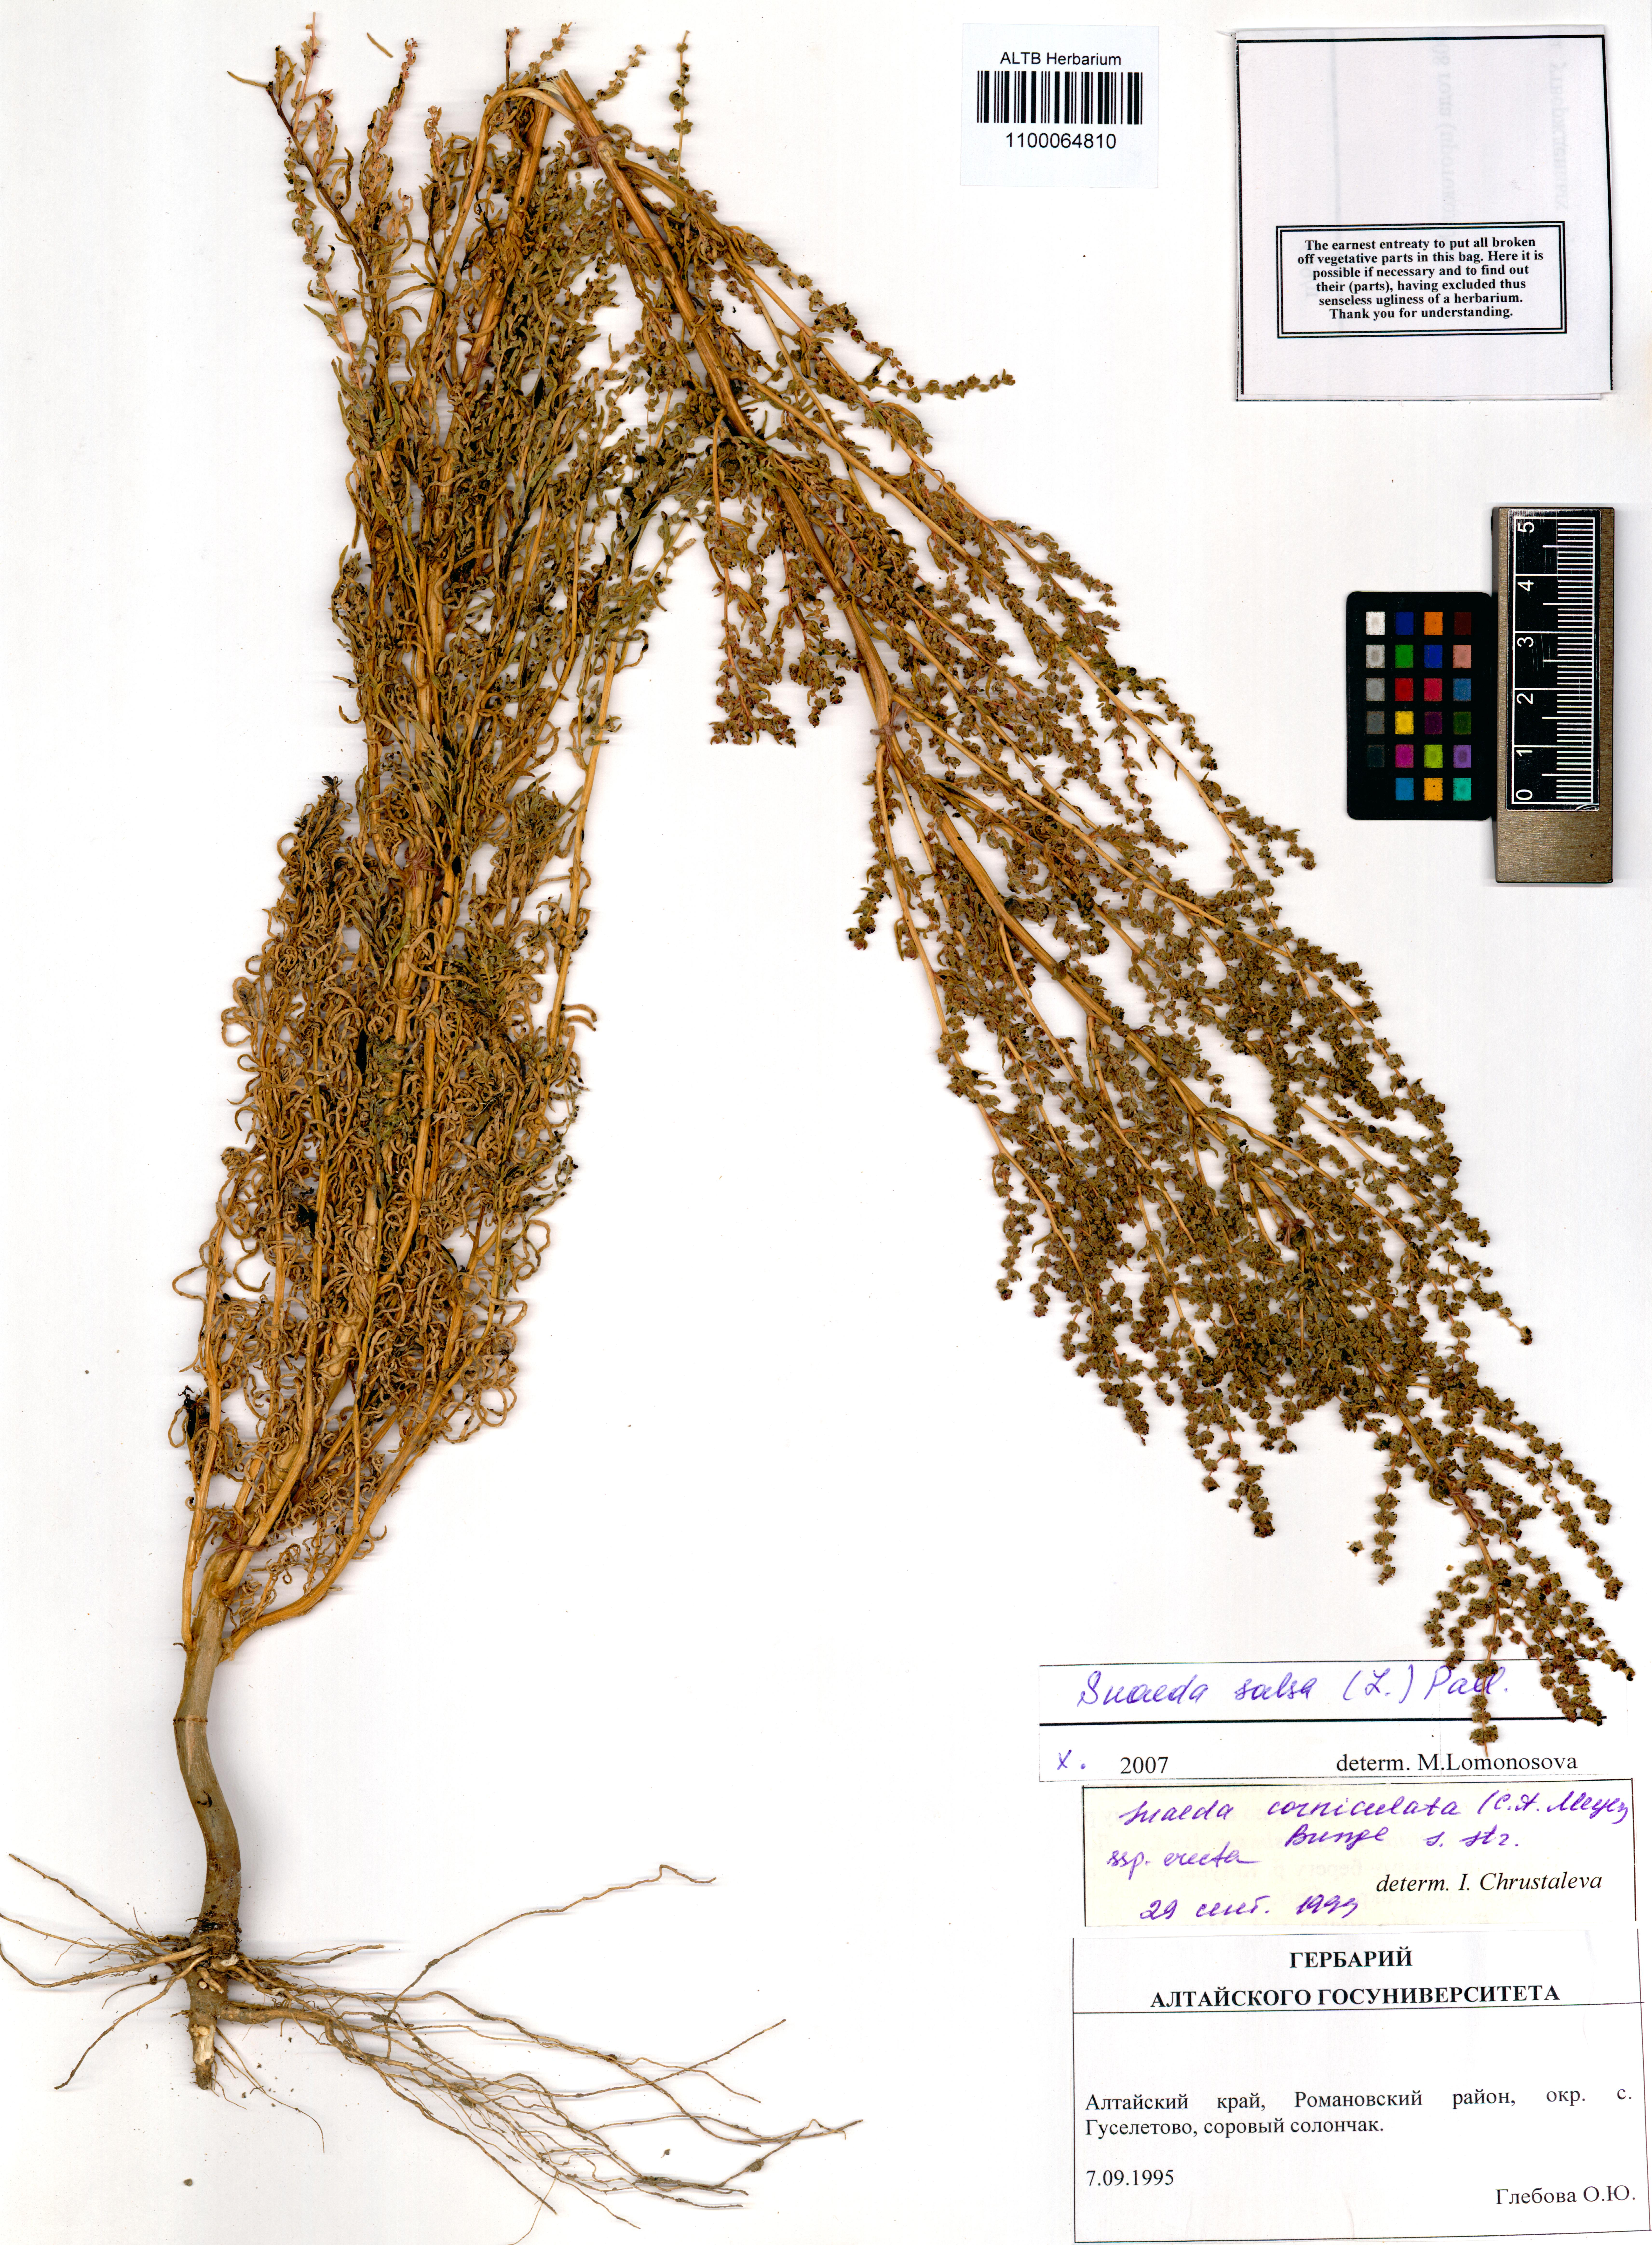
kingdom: Plantae
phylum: Tracheophyta
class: Magnoliopsida
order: Caryophyllales
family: Amaranthaceae
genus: Suaeda
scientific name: Suaeda salsa
